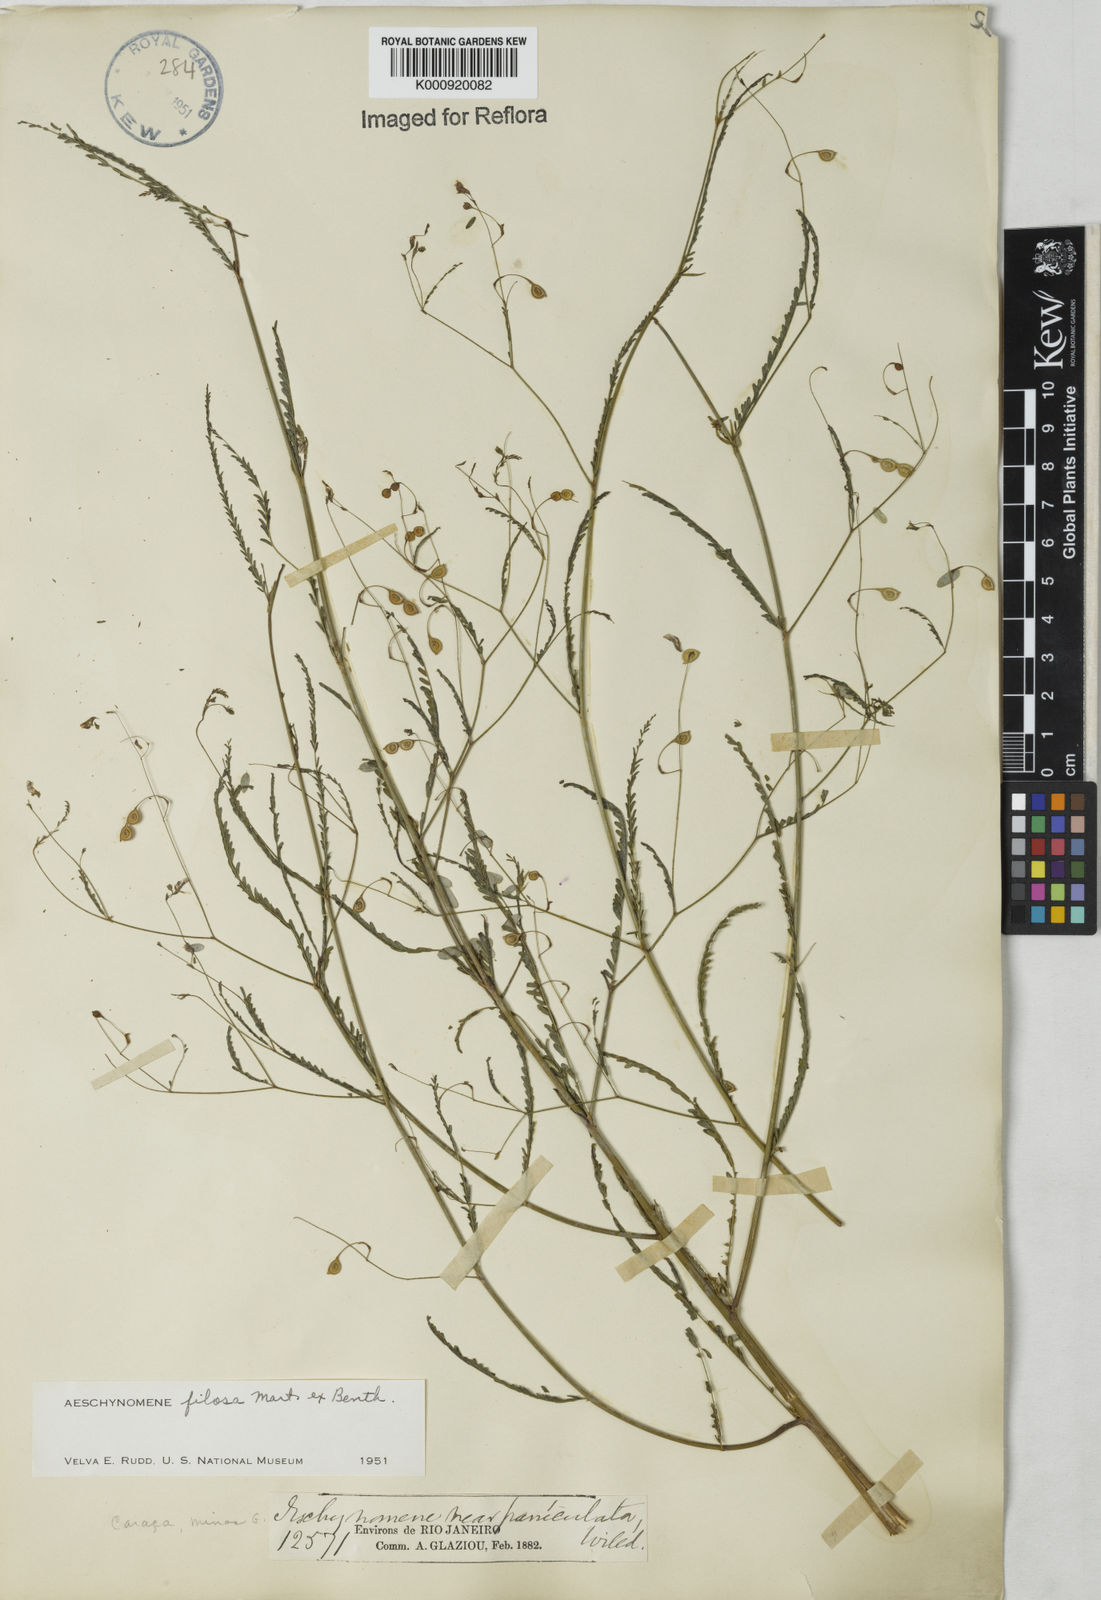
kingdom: Plantae
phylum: Tracheophyta
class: Magnoliopsida
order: Fabales
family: Fabaceae
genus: Aeschynomene
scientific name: Aeschynomene filosa
